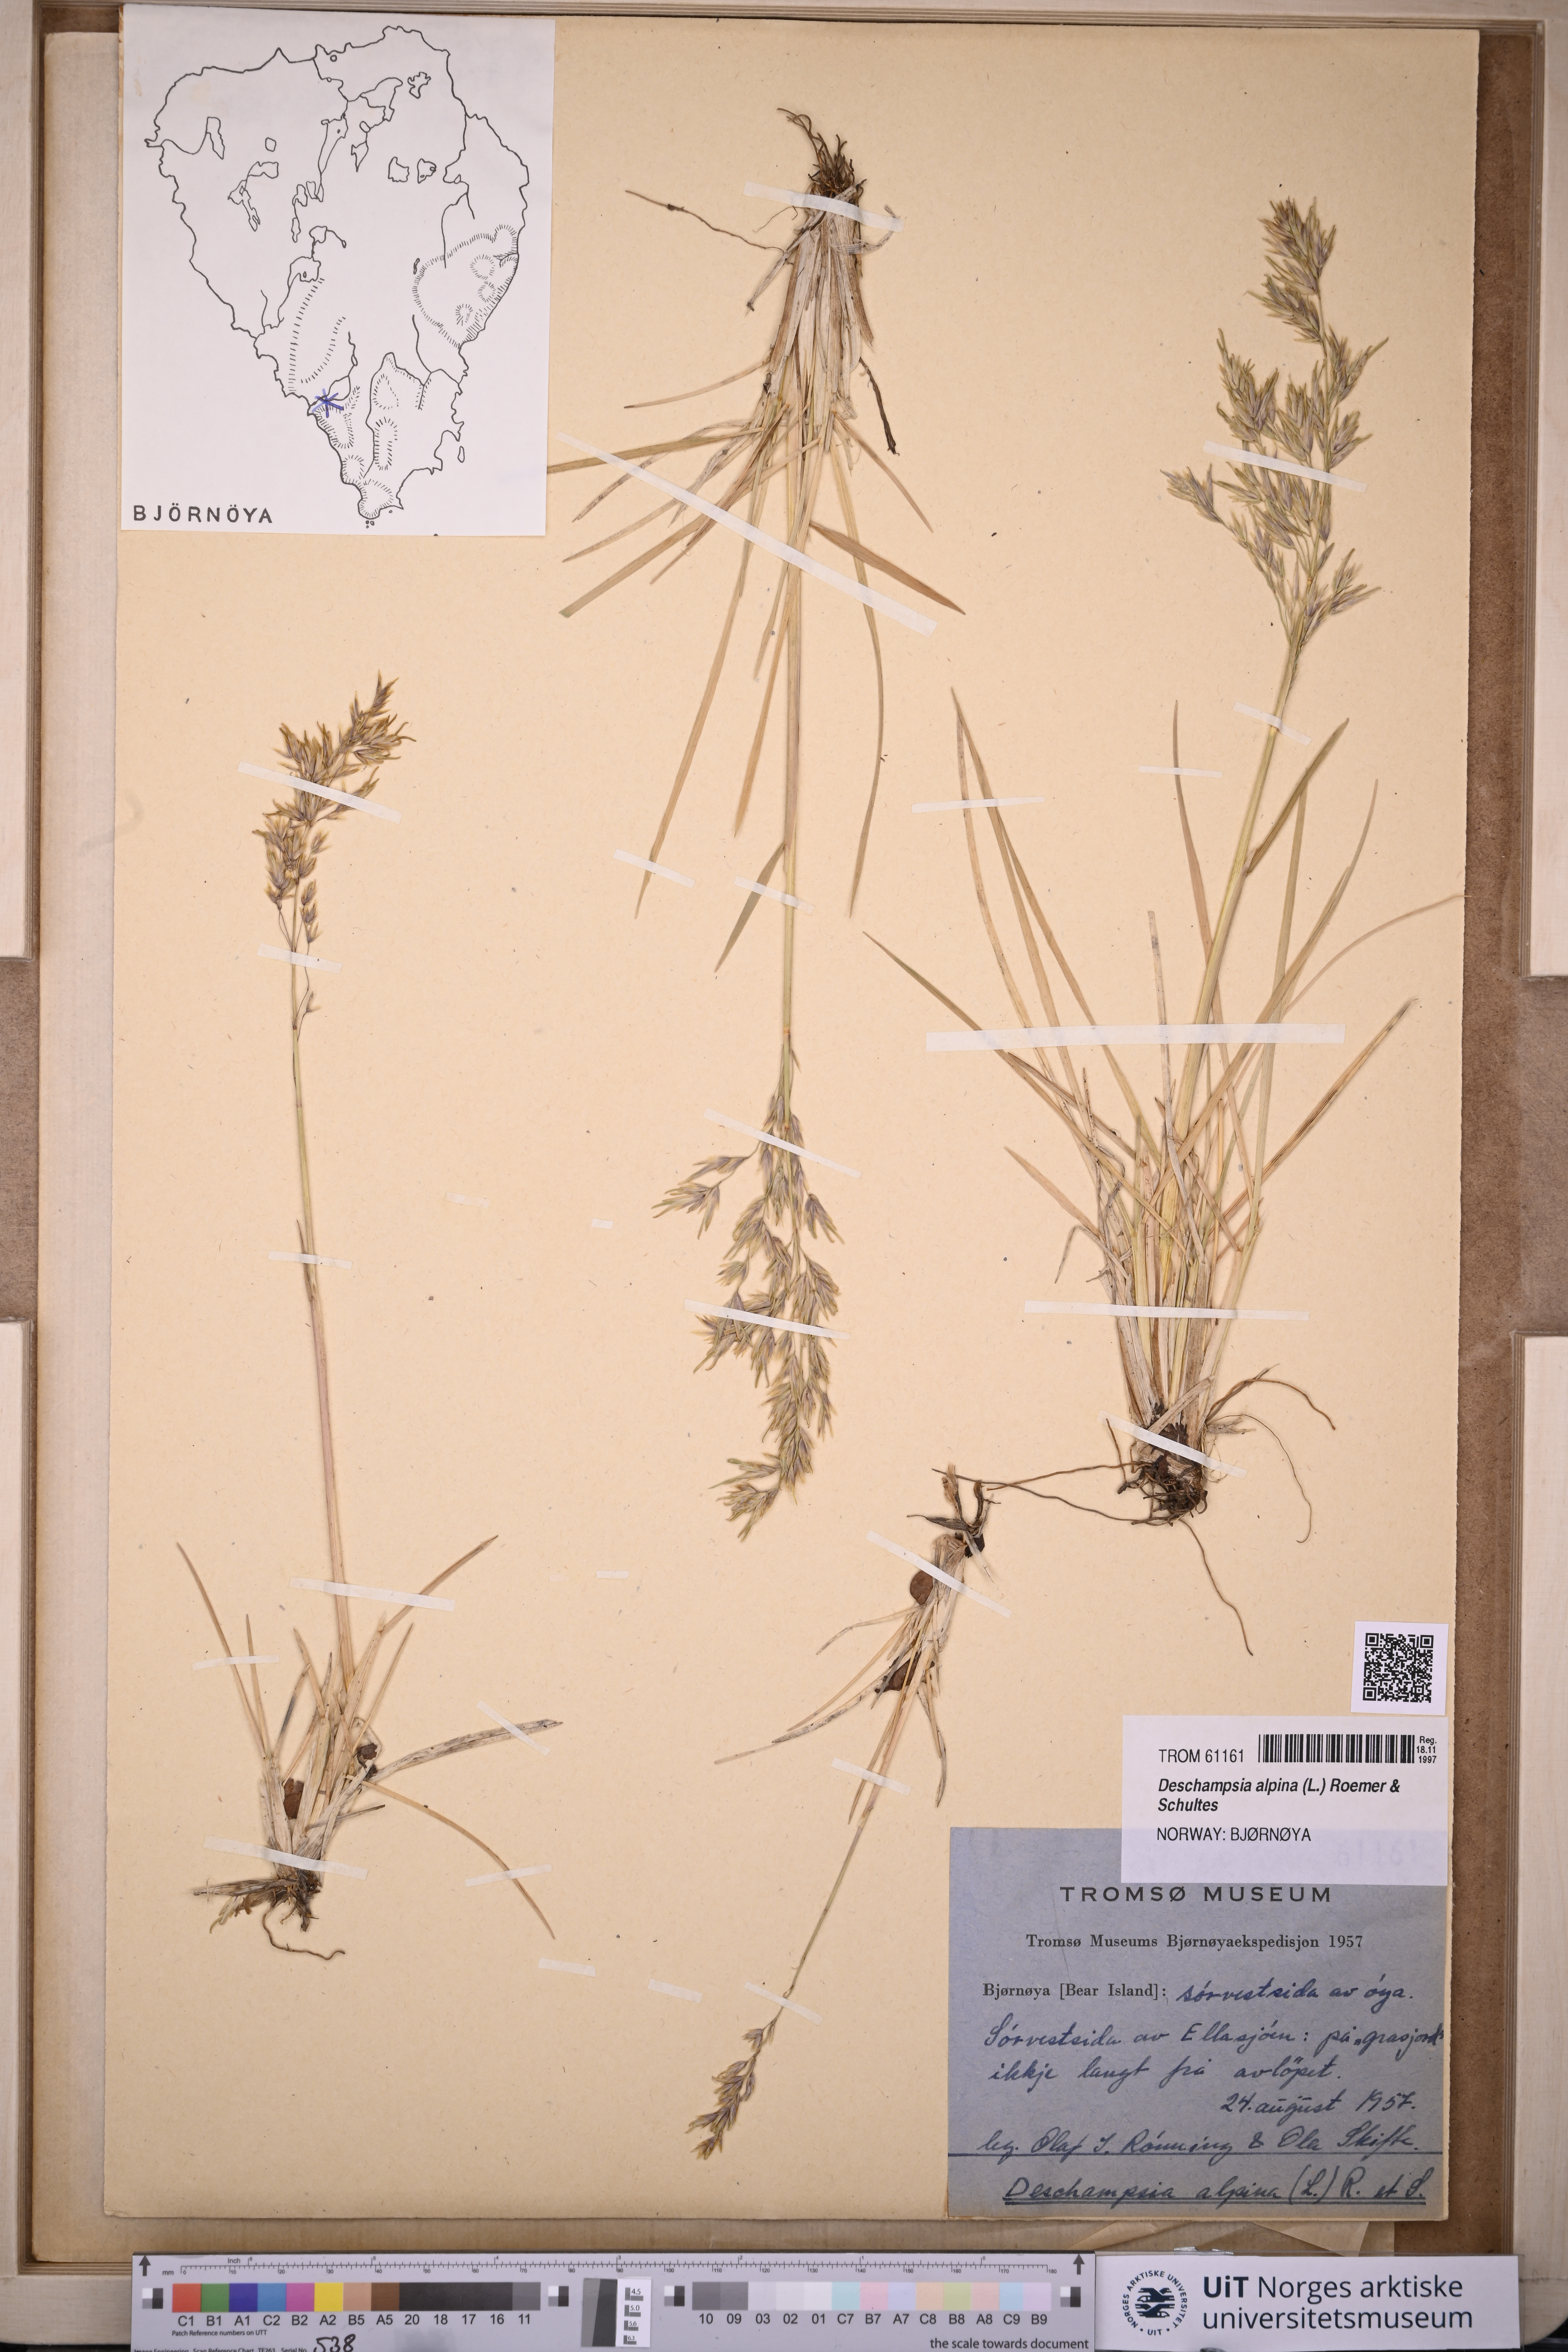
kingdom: Plantae
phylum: Tracheophyta
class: Liliopsida
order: Poales
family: Poaceae
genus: Deschampsia
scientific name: Deschampsia cespitosa
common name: Tufted hair-grass
